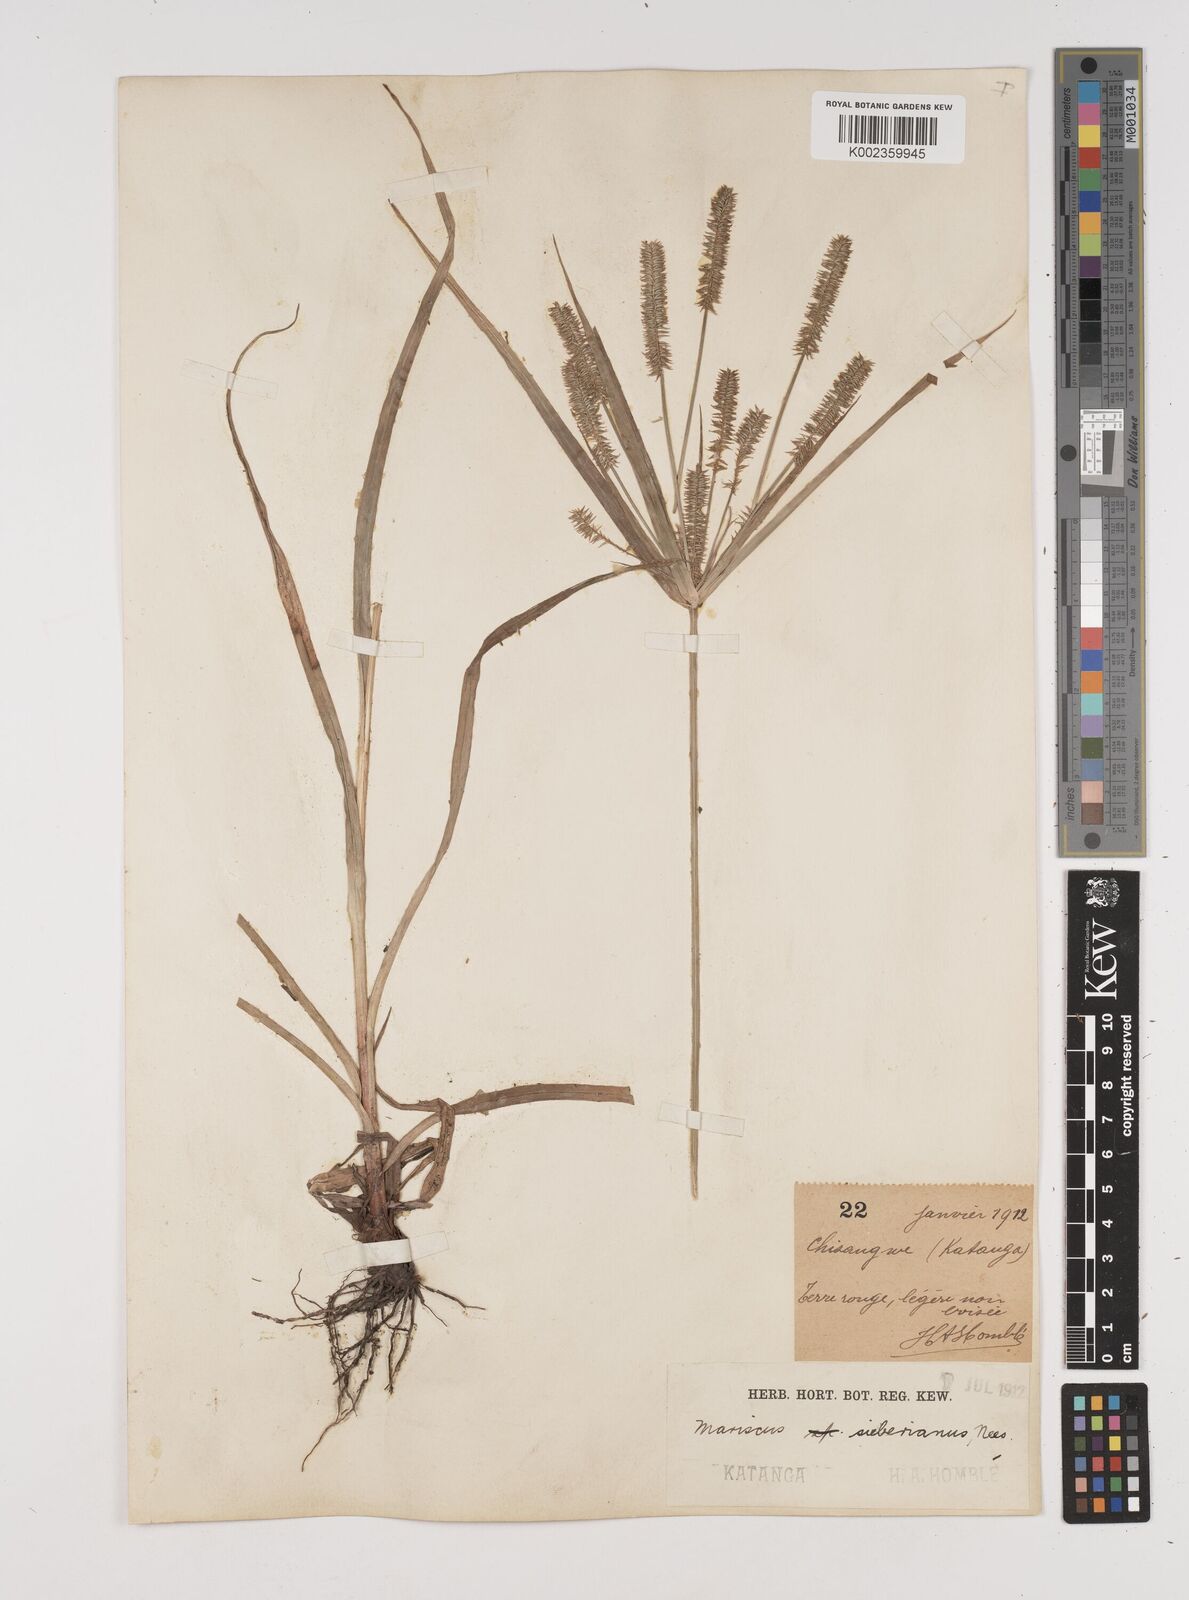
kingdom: Plantae
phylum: Tracheophyta
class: Liliopsida
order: Poales
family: Cyperaceae
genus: Cyperus
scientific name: Cyperus cyperoides
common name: Pacific island flat sedge
